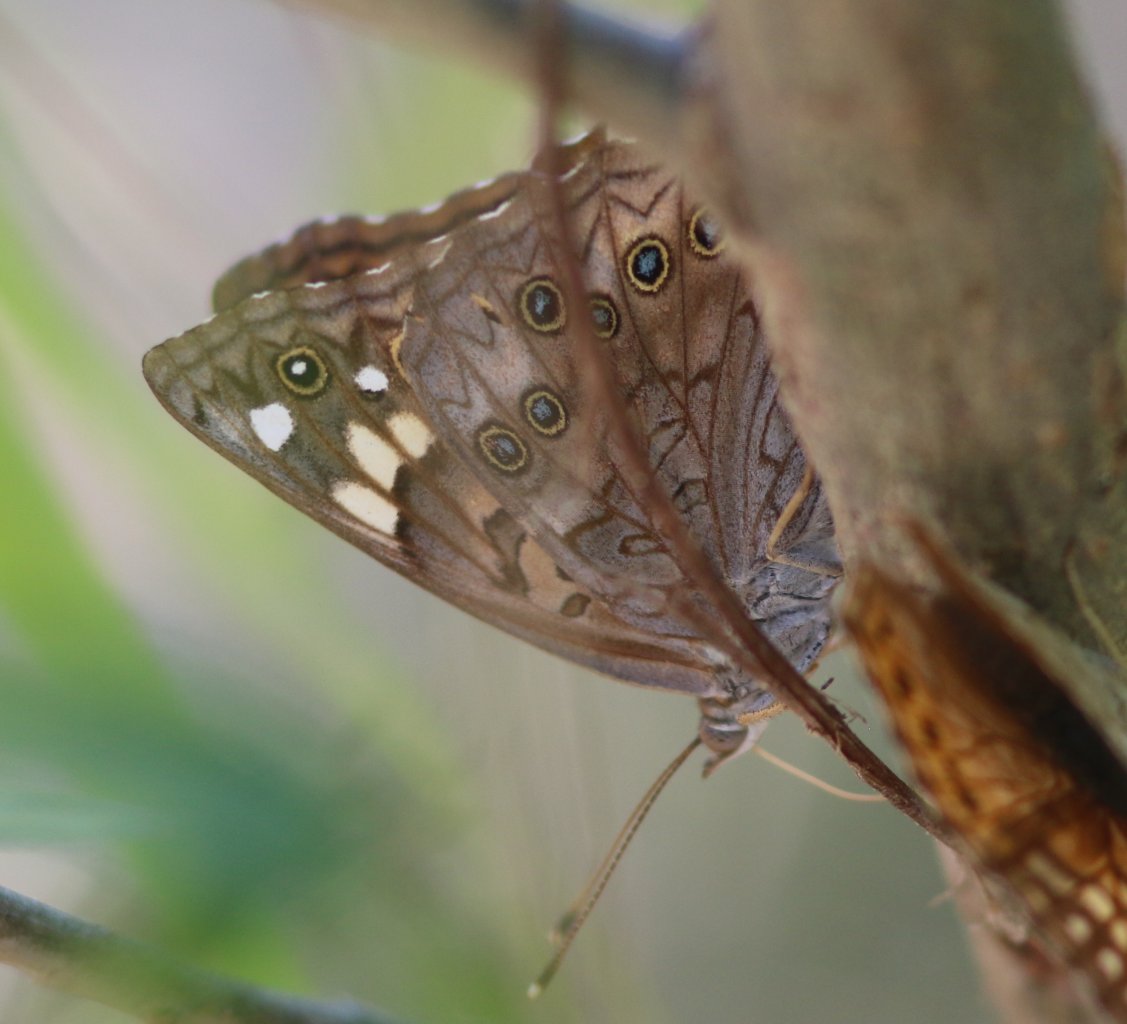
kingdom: Animalia
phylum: Arthropoda
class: Insecta
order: Lepidoptera
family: Nymphalidae
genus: Asterocampa
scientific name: Asterocampa celtis
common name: Hackberry Emperor
